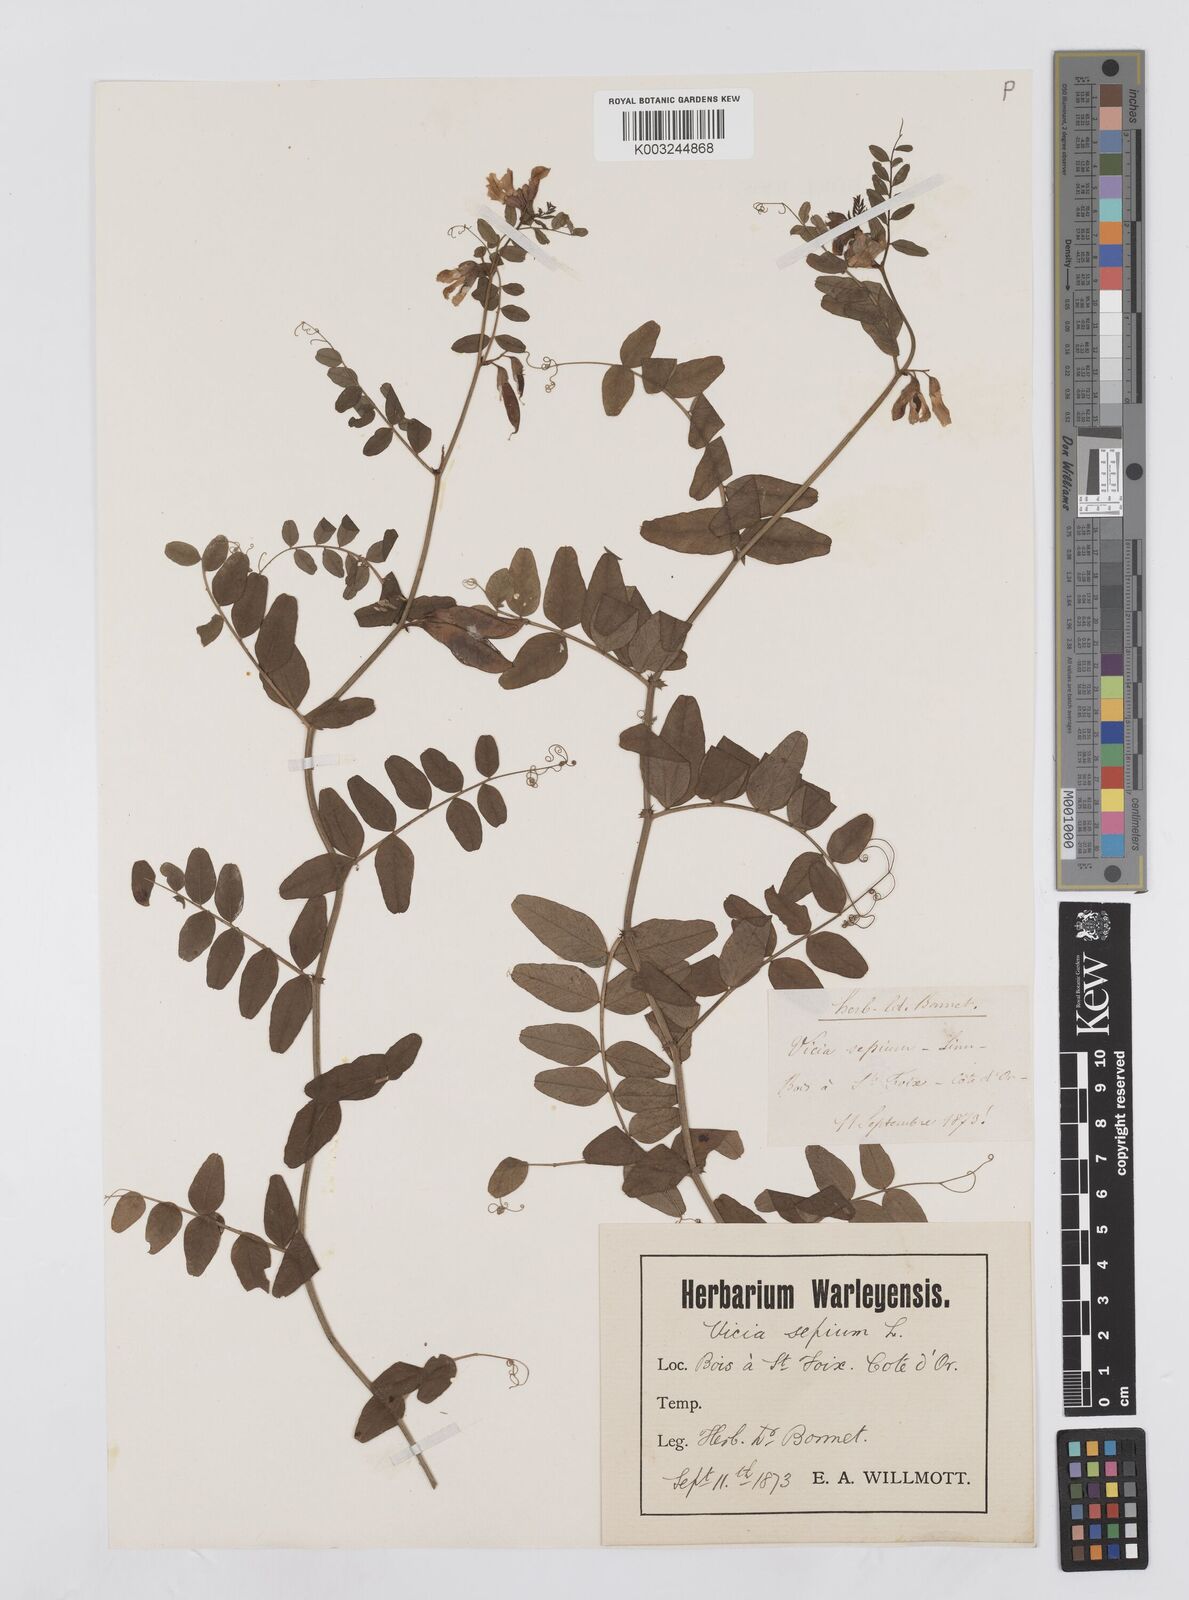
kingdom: Plantae
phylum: Tracheophyta
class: Magnoliopsida
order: Fabales
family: Fabaceae
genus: Vicia
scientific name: Vicia sepium
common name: Bush vetch
